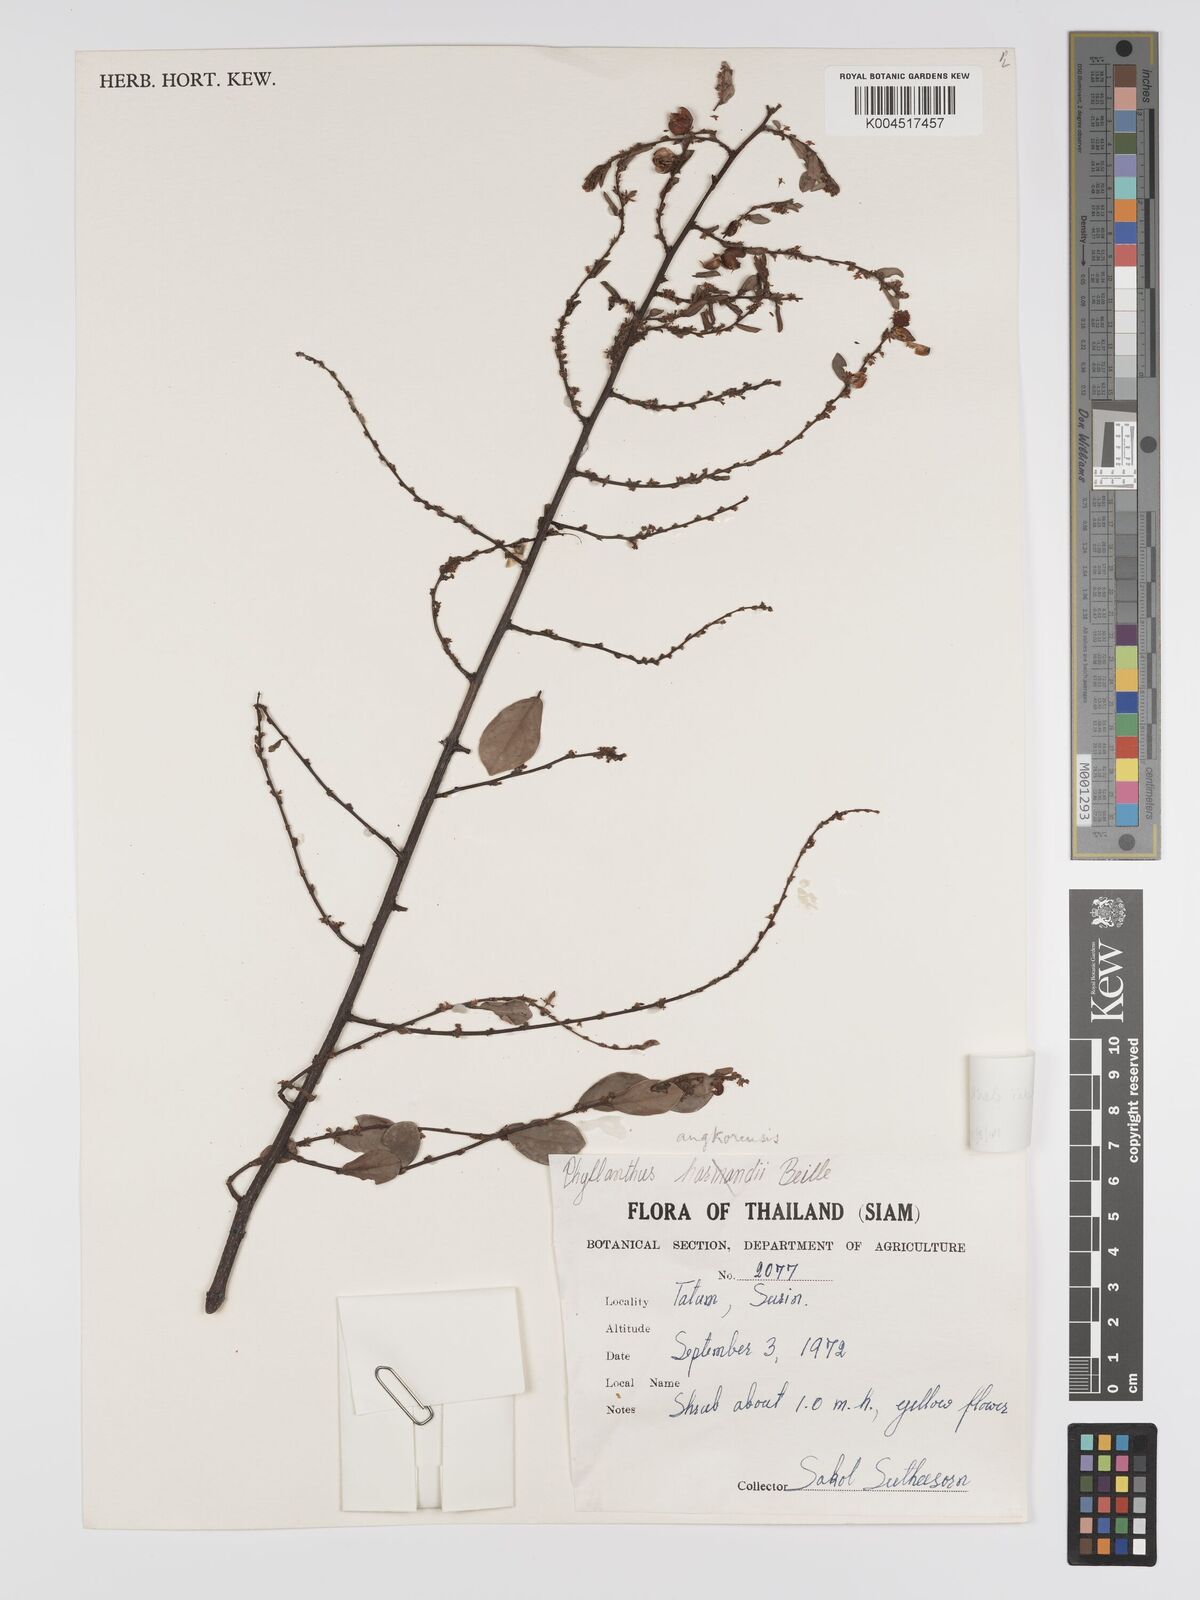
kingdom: Plantae
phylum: Tracheophyta
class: Magnoliopsida
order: Malpighiales
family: Phyllanthaceae
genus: Phyllanthus
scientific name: Phyllanthus harmandii
